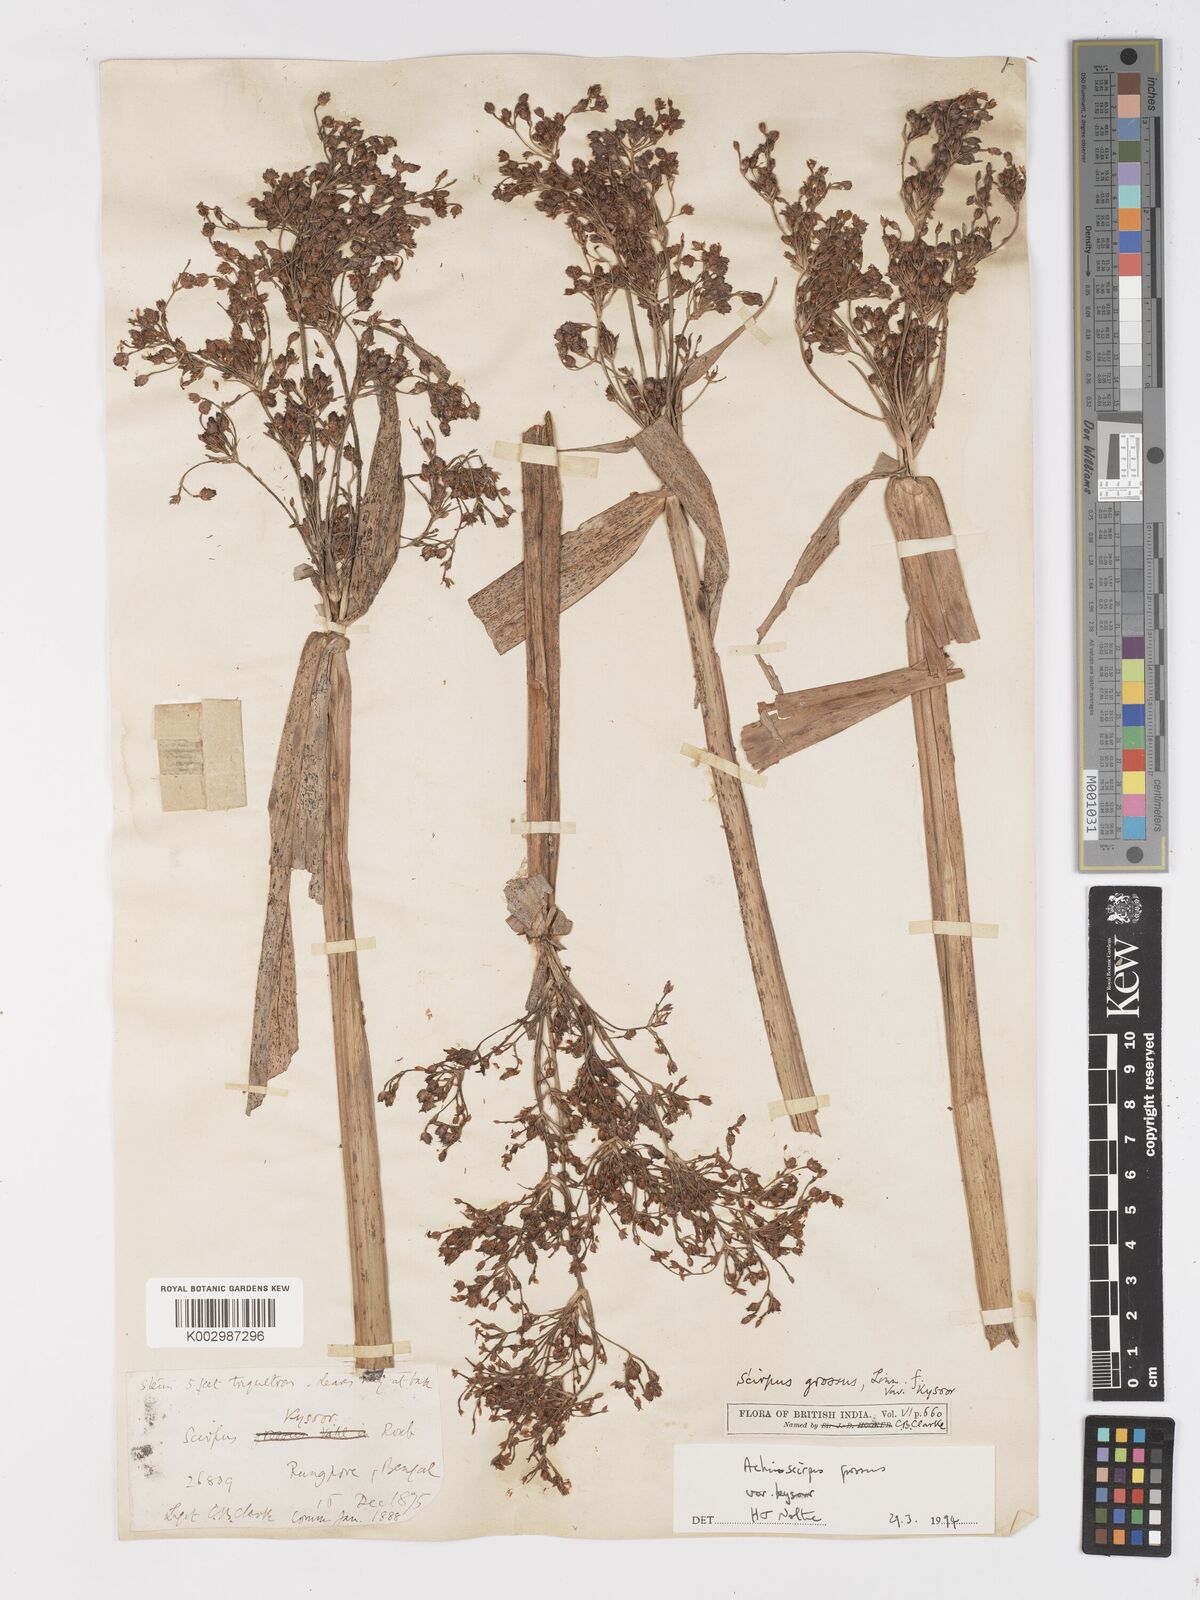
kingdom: Plantae
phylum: Tracheophyta
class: Liliopsida
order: Poales
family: Cyperaceae
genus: Actinoscirpus
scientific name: Actinoscirpus grossus
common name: Giant bur rush
